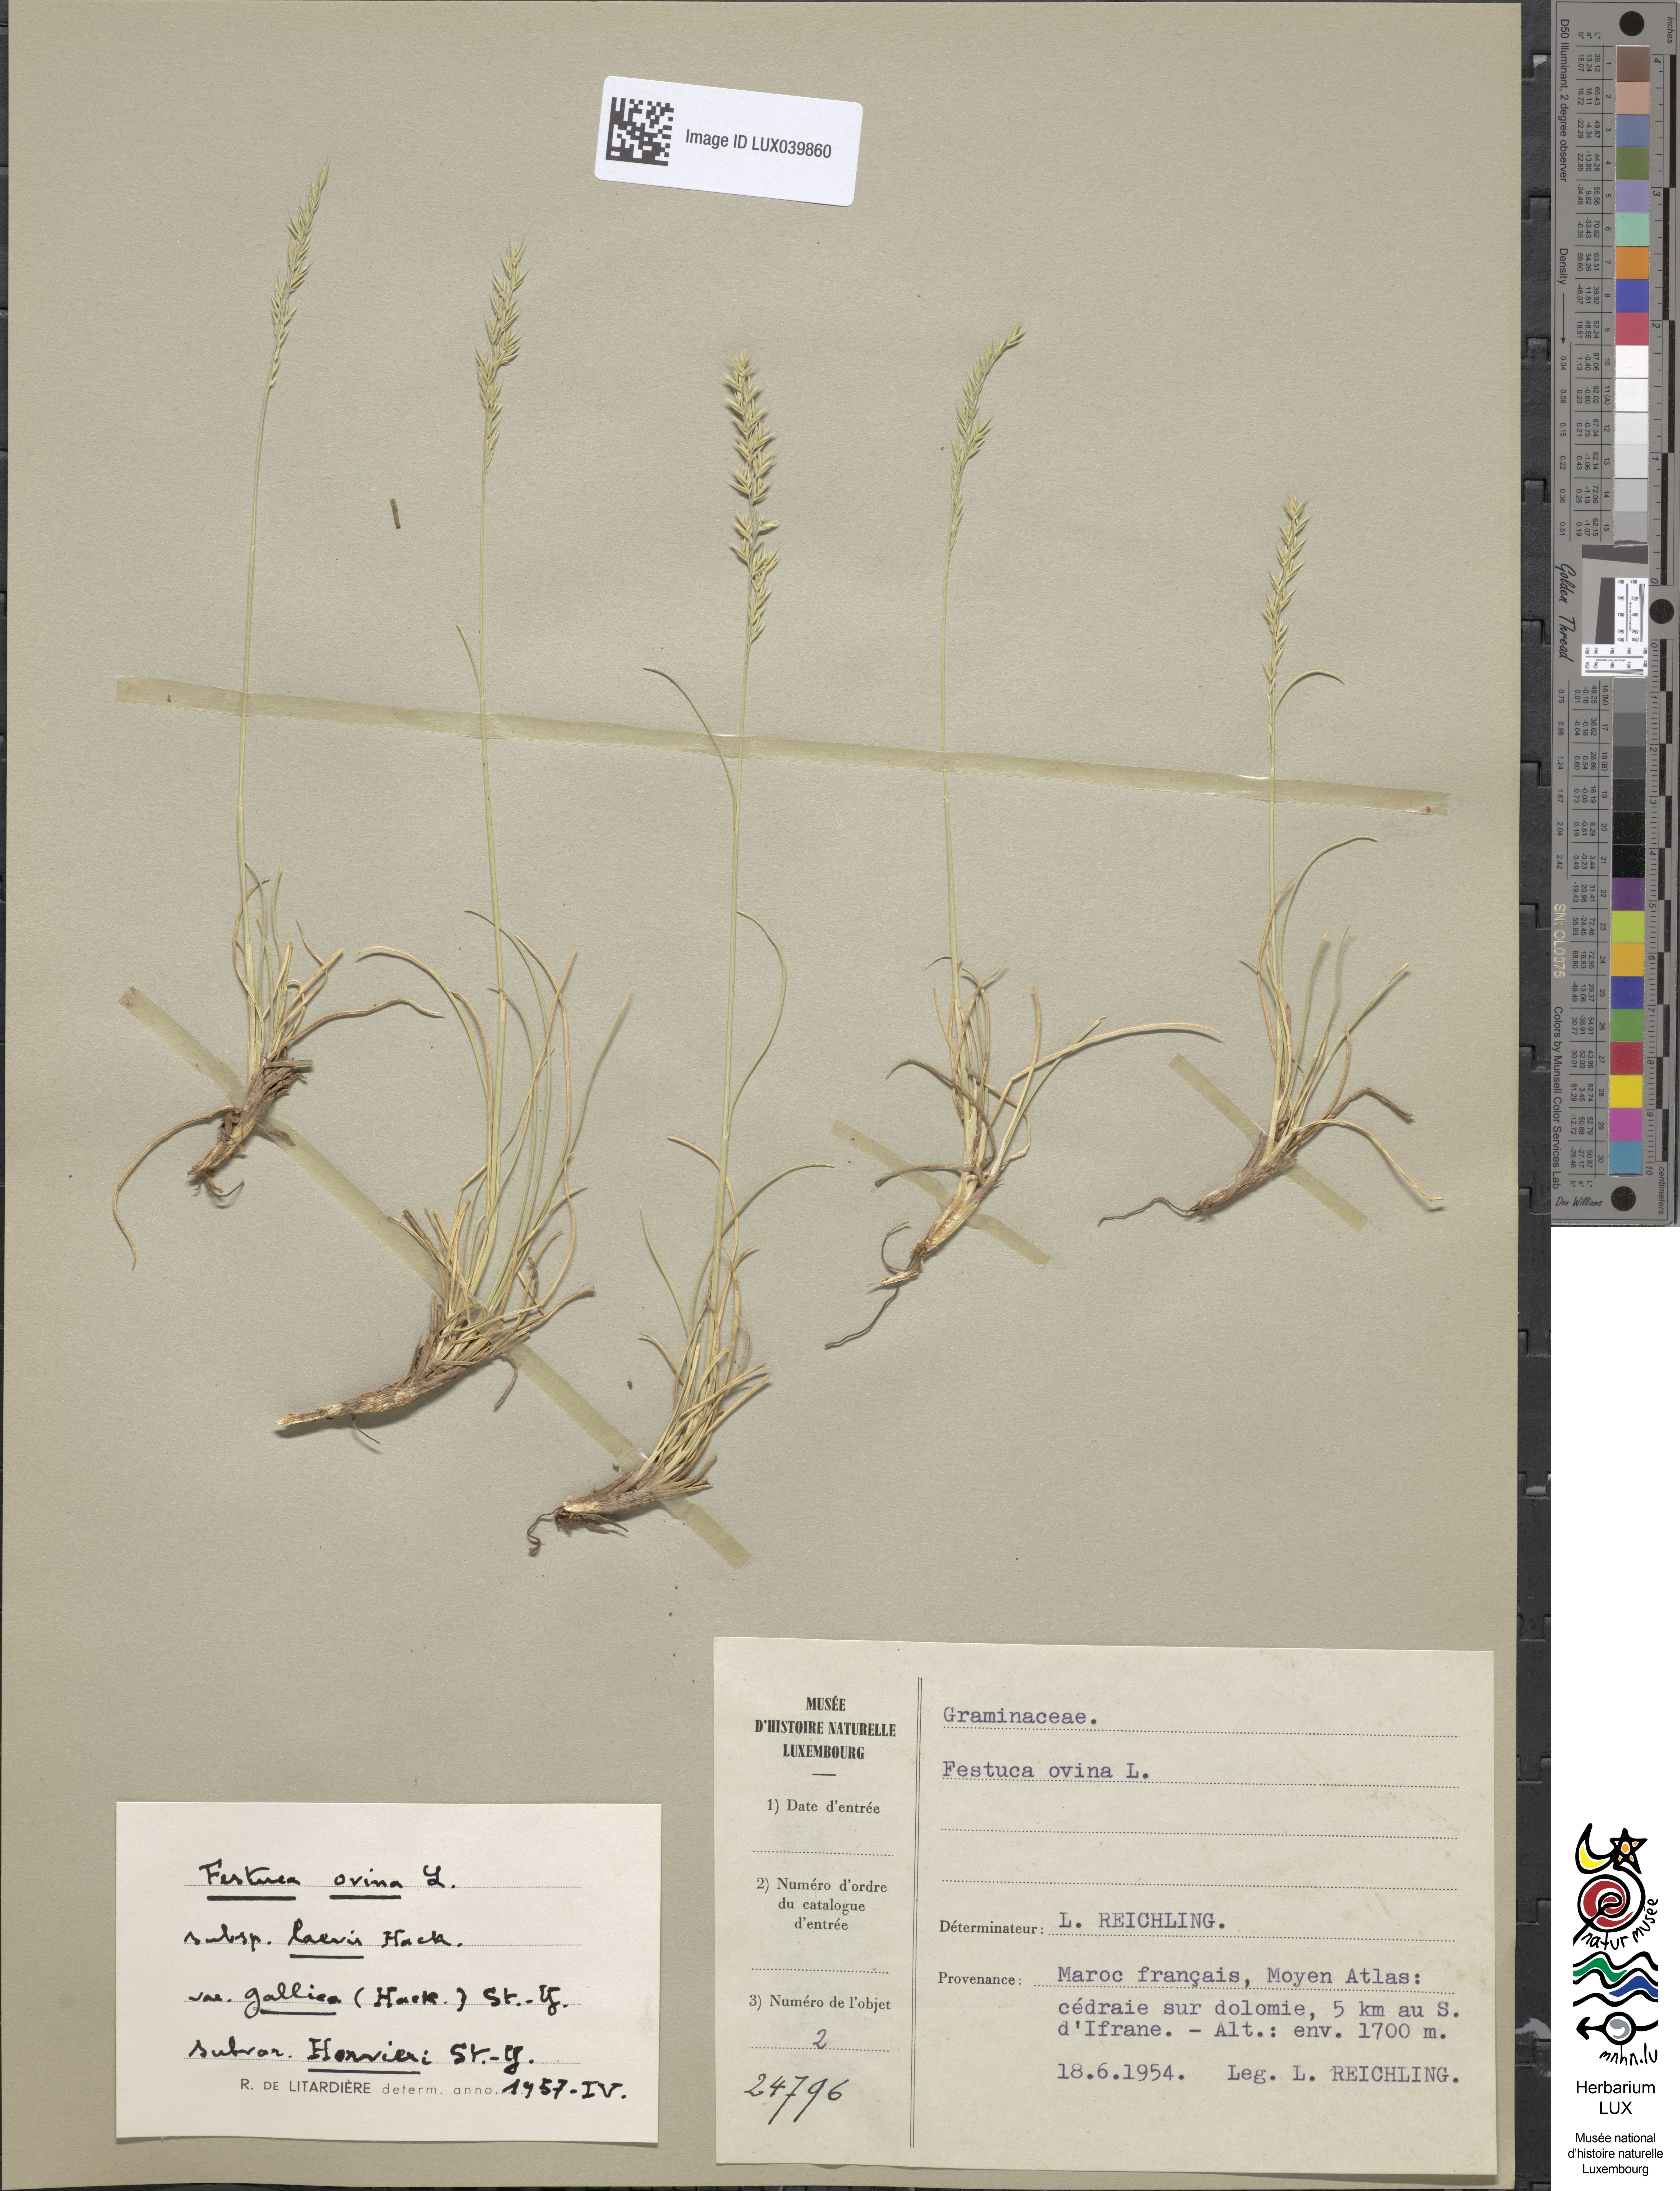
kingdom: Plantae
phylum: Tracheophyta
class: Liliopsida
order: Poales
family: Poaceae
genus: Festuca
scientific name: Festuca ovina
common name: Sheep fescue
